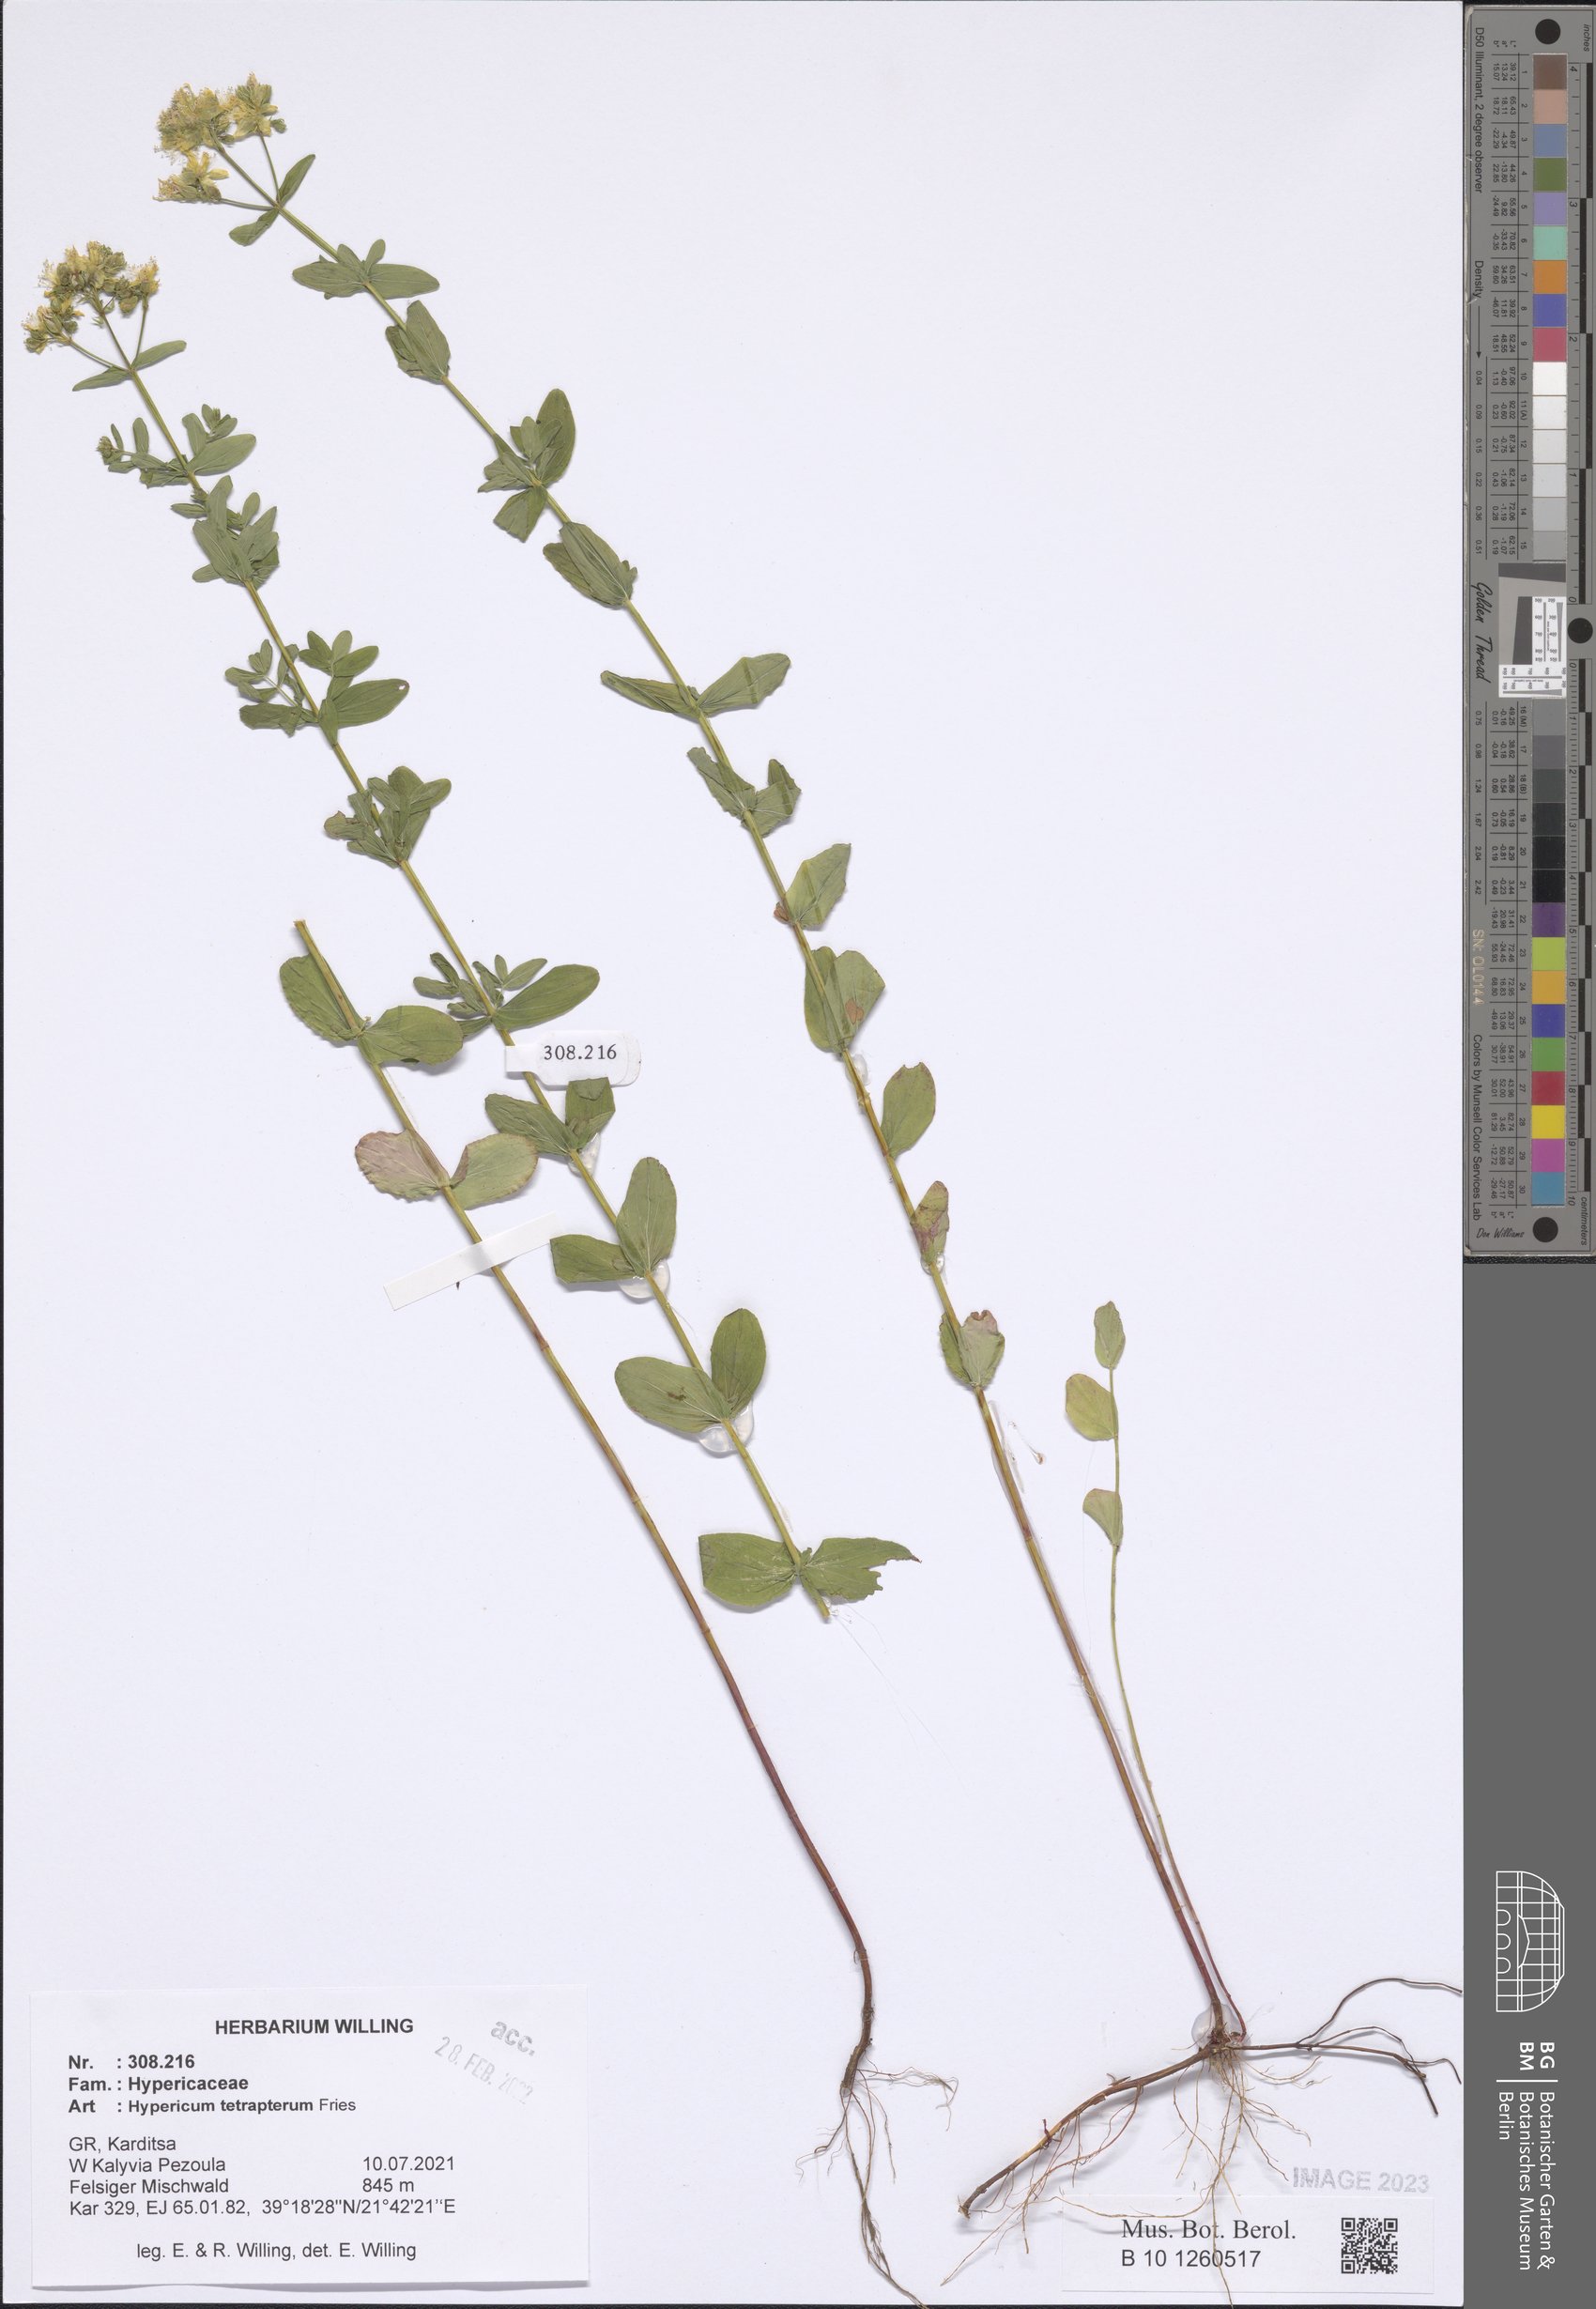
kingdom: Plantae
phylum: Tracheophyta
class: Magnoliopsida
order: Malpighiales
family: Hypericaceae
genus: Hypericum
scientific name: Hypericum tetrapterum
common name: Square-stalked st. john's-wort
